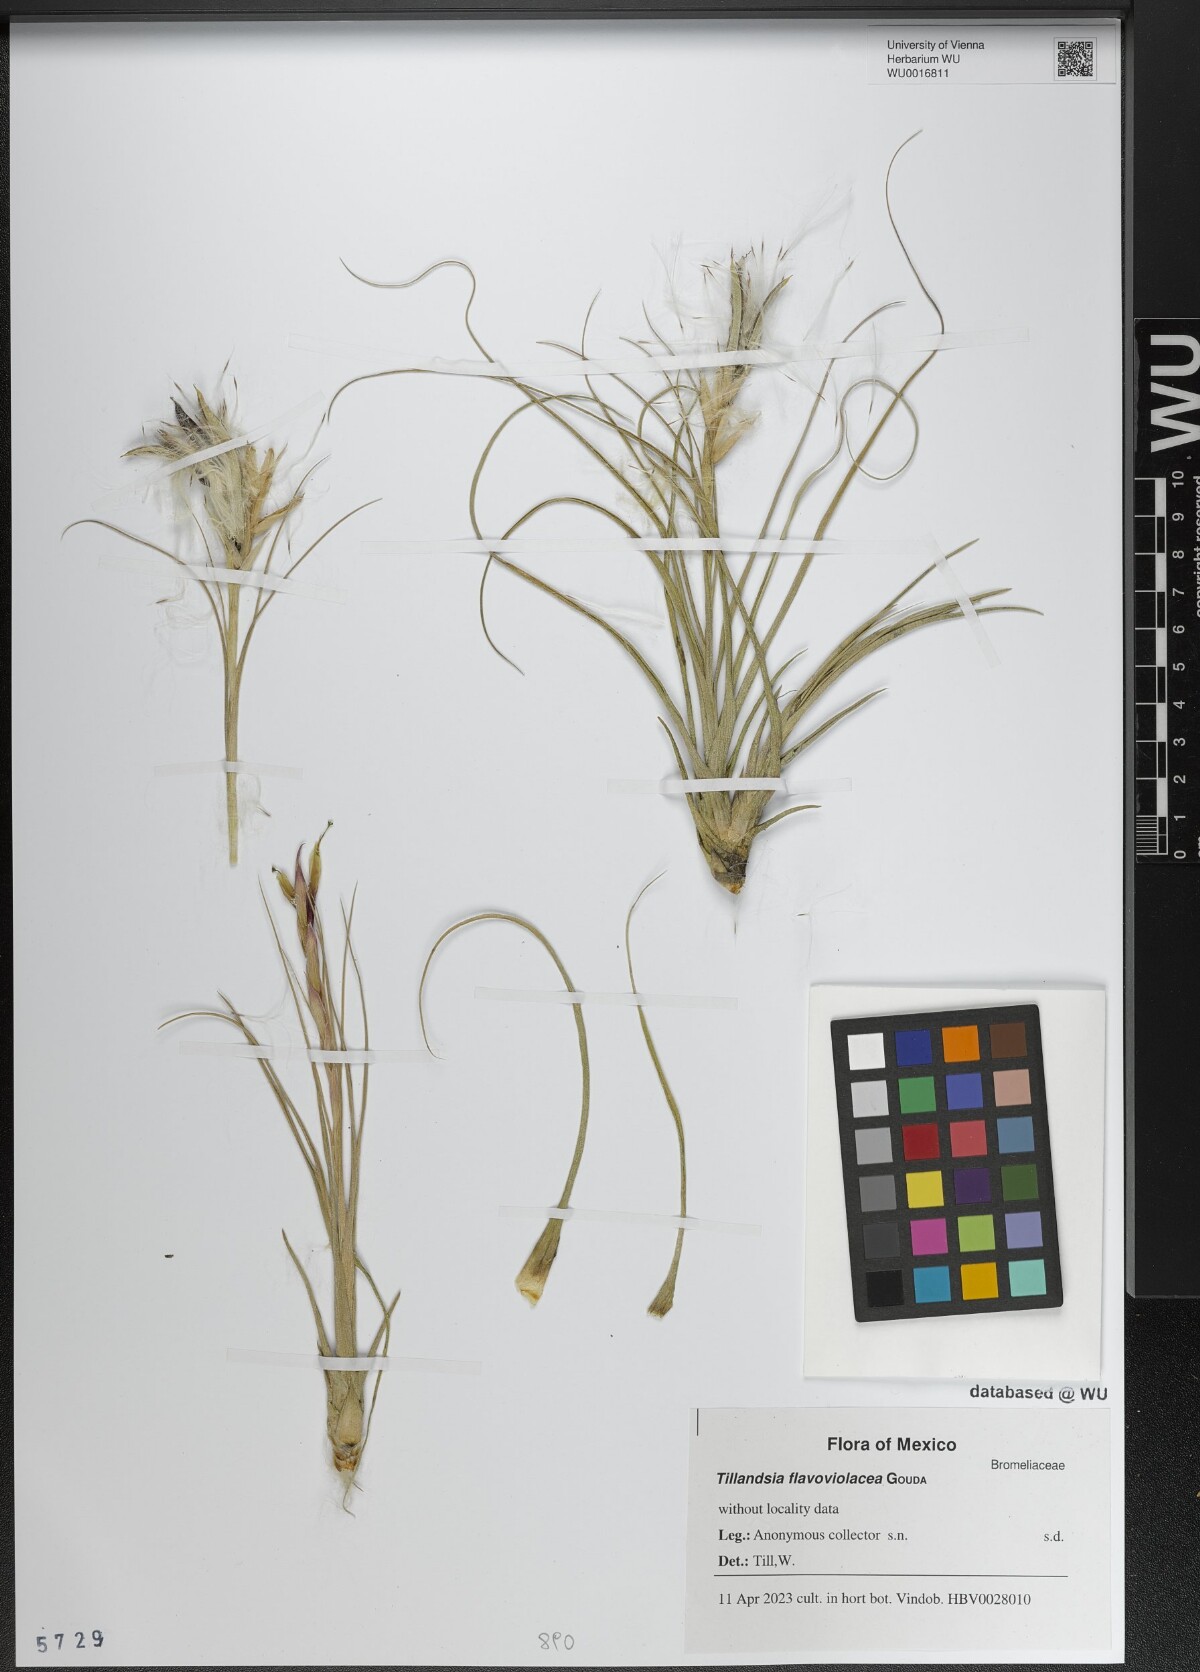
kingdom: Plantae
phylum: Tracheophyta
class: Liliopsida
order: Poales
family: Bromeliaceae
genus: Tillandsia
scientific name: Tillandsia flavoviolacea
